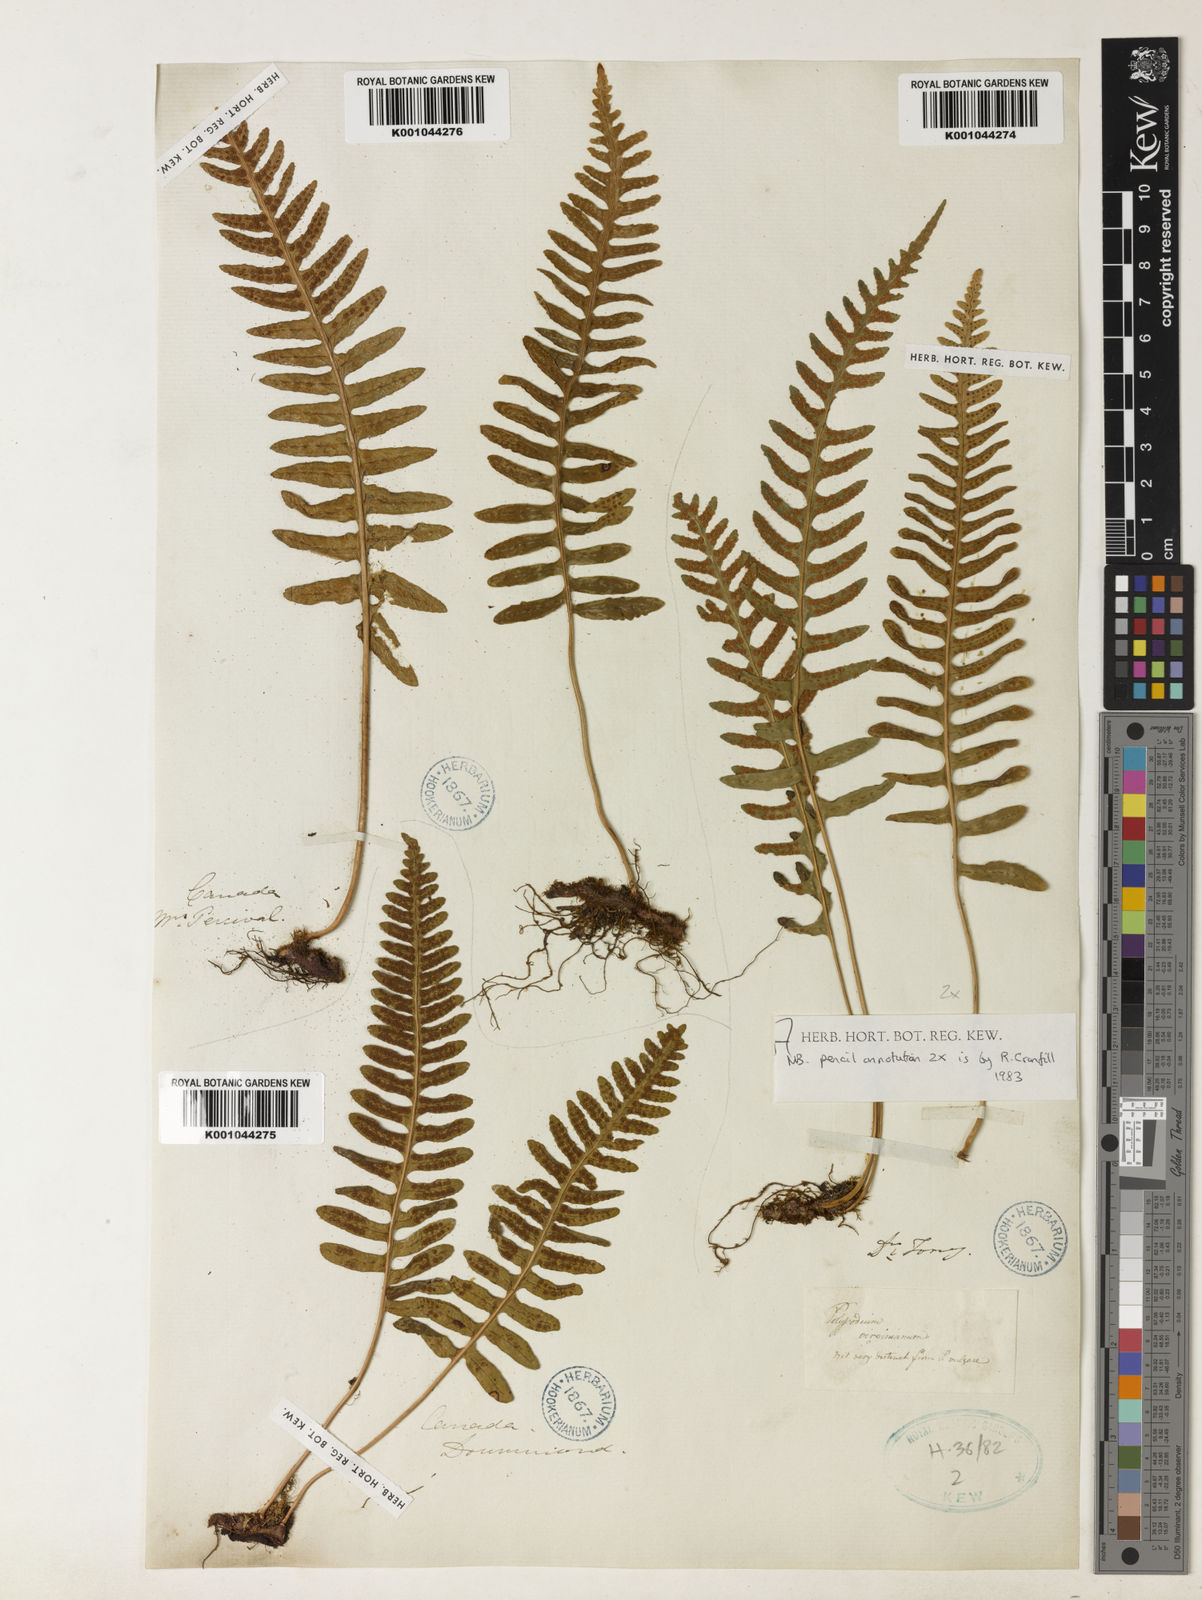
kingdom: Plantae
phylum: Tracheophyta
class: Polypodiopsida
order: Polypodiales
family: Polypodiaceae
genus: Polypodium
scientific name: Polypodium virginianum
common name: American wall fern
